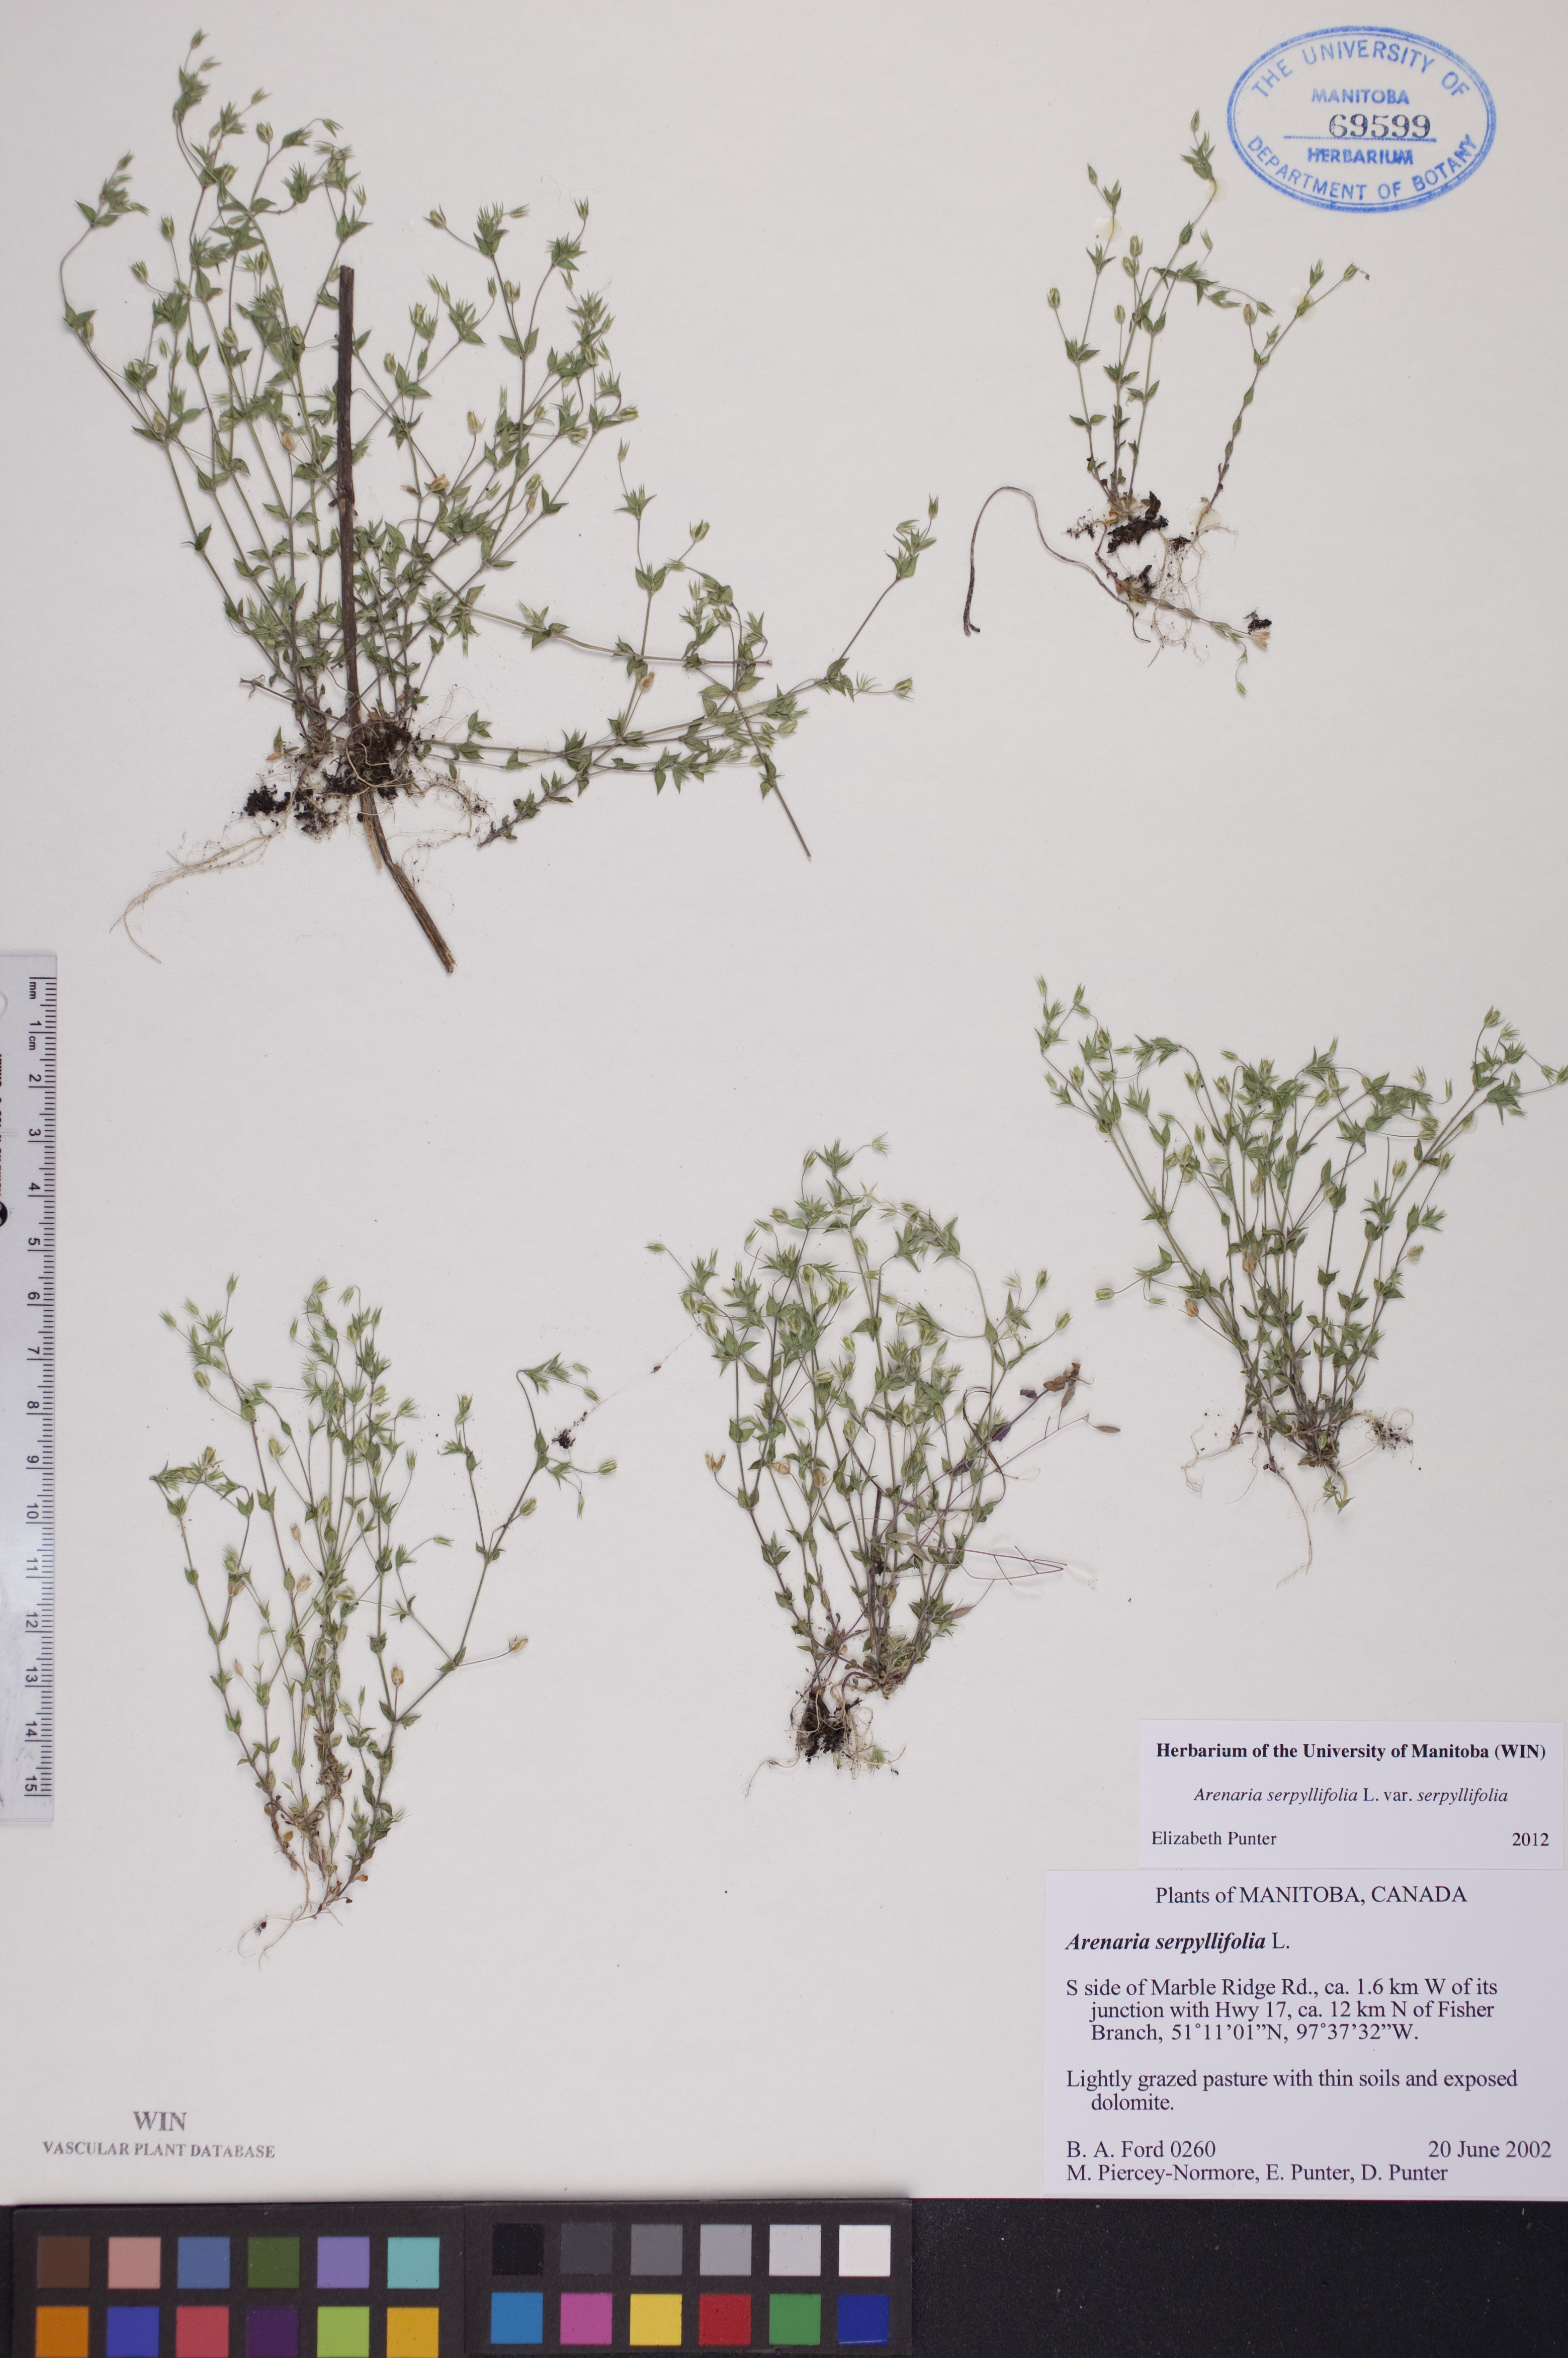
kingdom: Plantae
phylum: Tracheophyta
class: Magnoliopsida
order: Caryophyllales
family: Caryophyllaceae
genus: Arenaria
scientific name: Arenaria serpyllifolia
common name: Thyme-leaved sandwort
